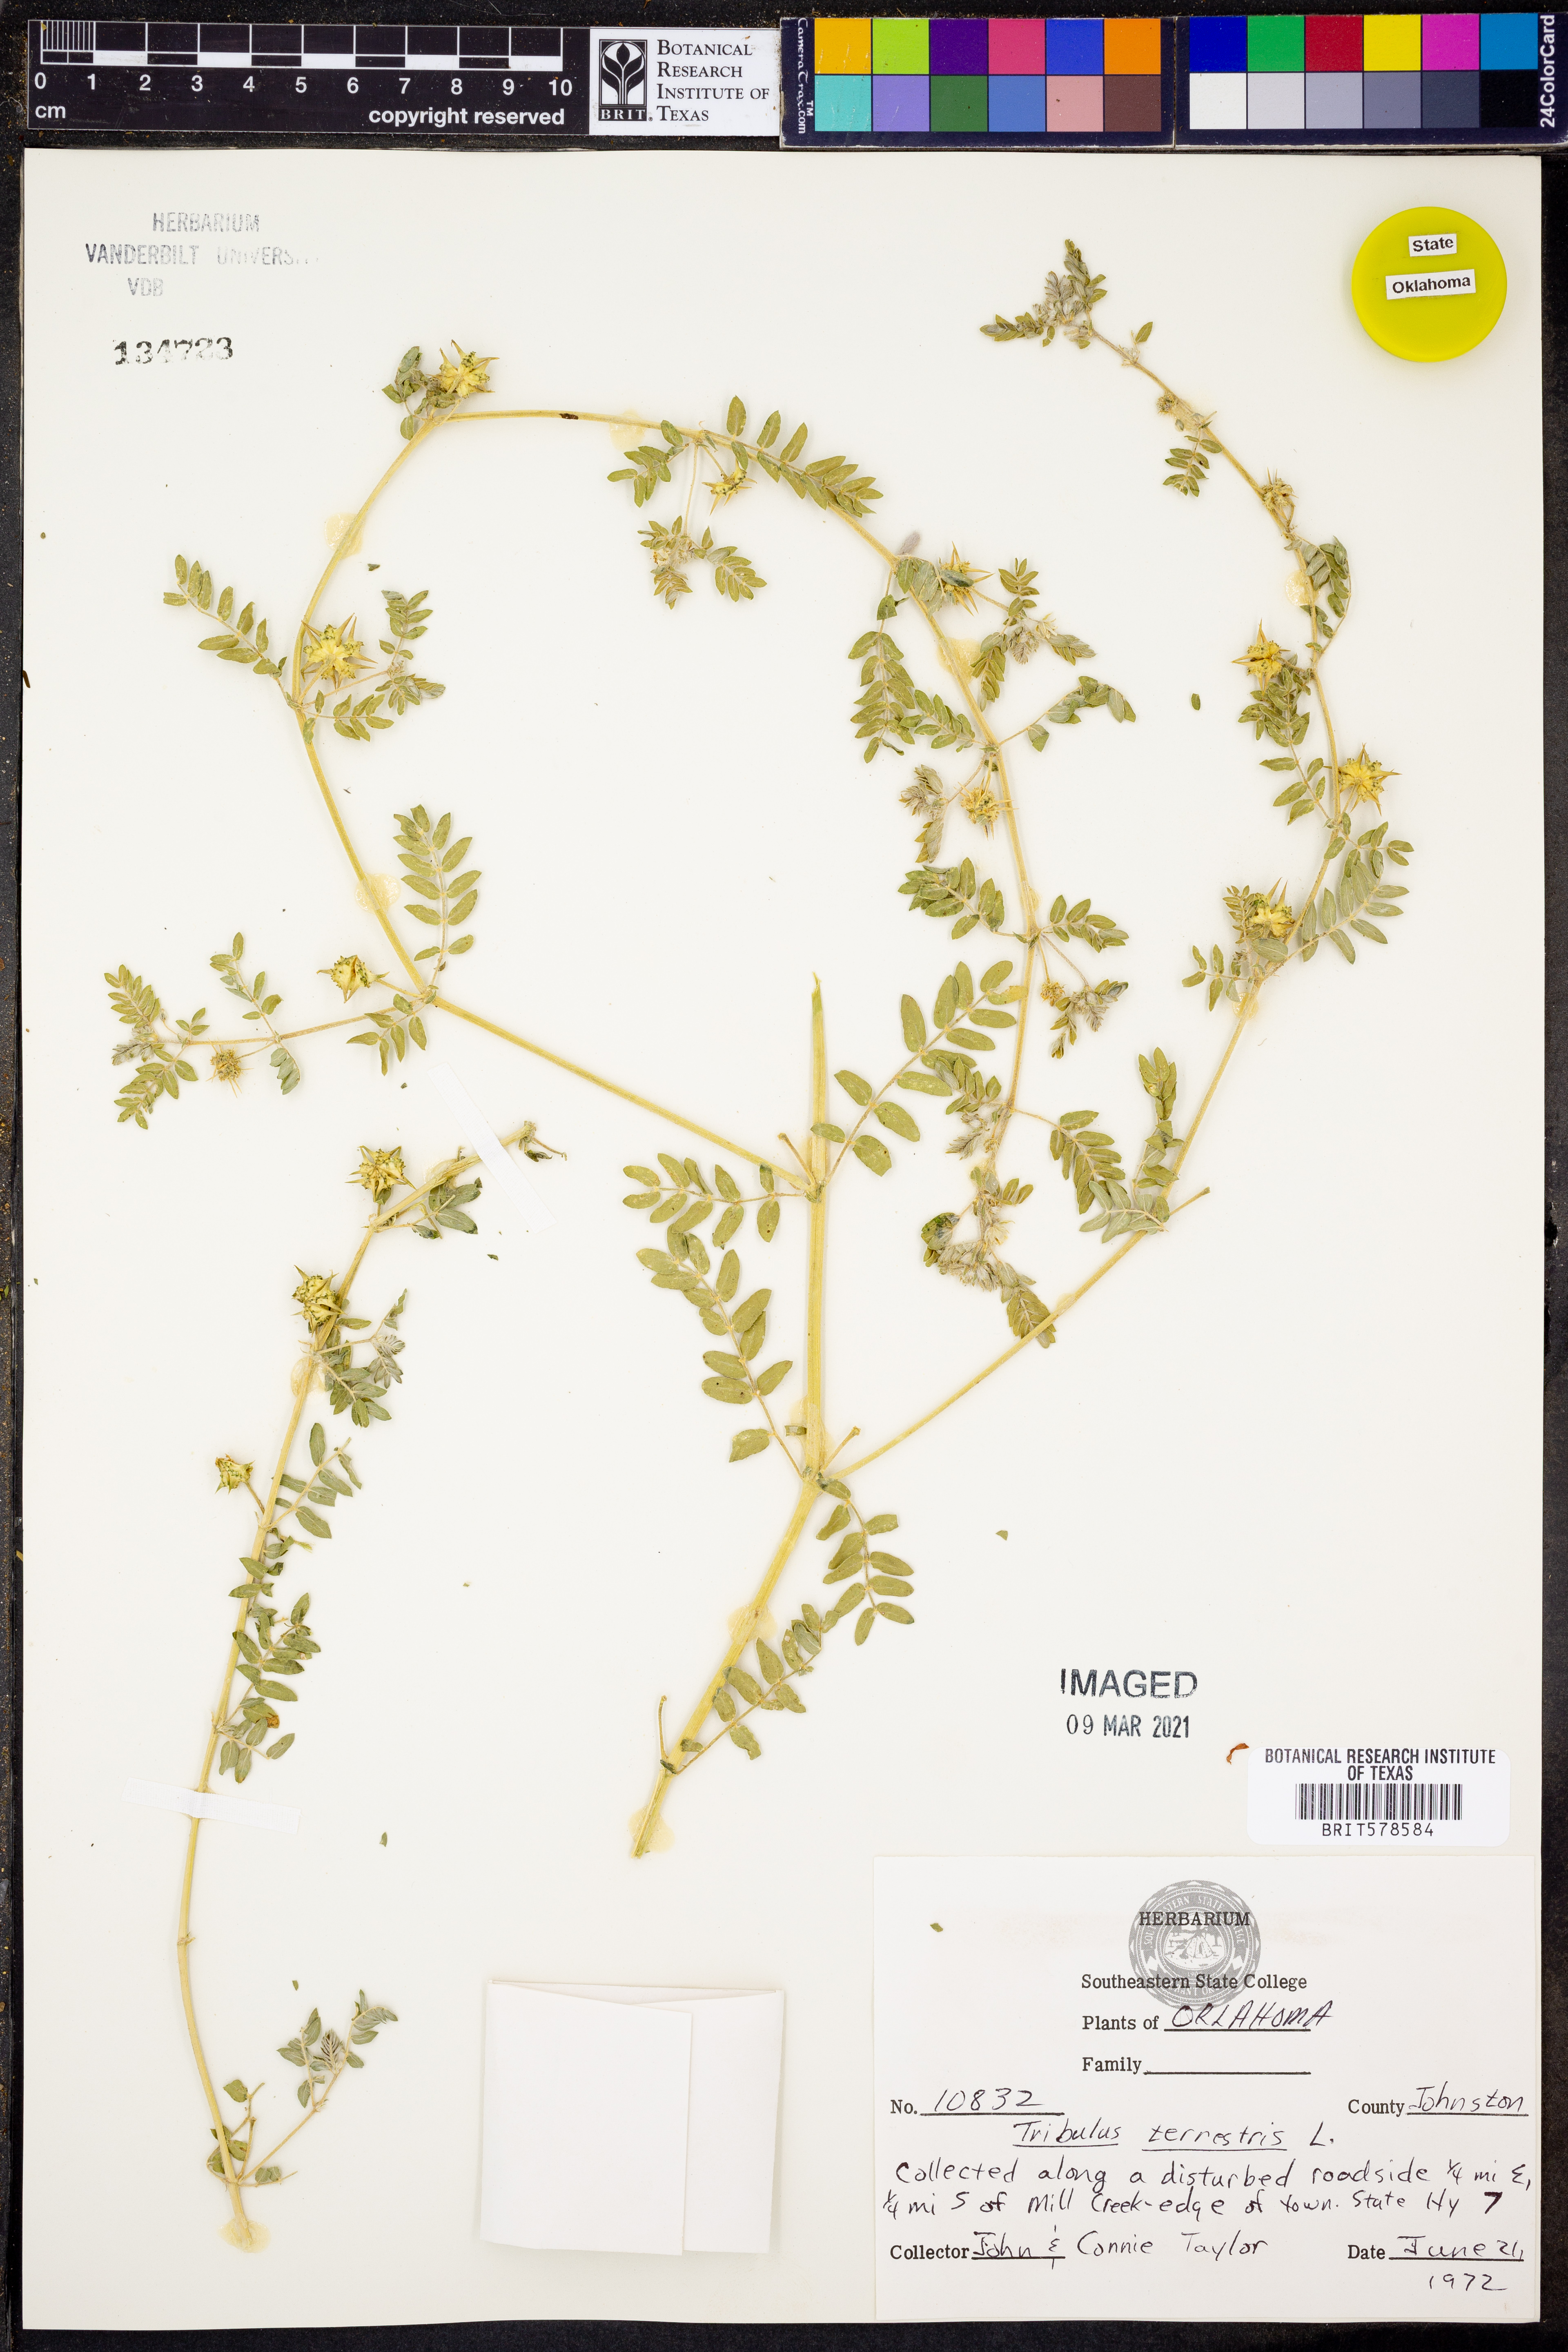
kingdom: Plantae
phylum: Tracheophyta
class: Magnoliopsida
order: Zygophyllales
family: Zygophyllaceae
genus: Tribulus
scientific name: Tribulus terrestris
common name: Puncturevine
